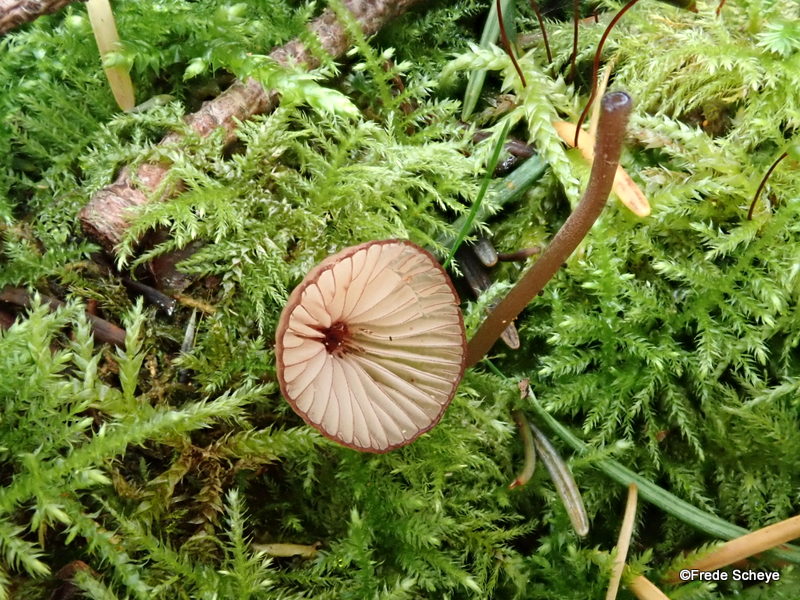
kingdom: Fungi
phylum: Basidiomycota
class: Agaricomycetes
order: Agaricales
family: Mycenaceae
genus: Mycena
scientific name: Mycena sanguinolenta
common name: rødmælket huesvamp
